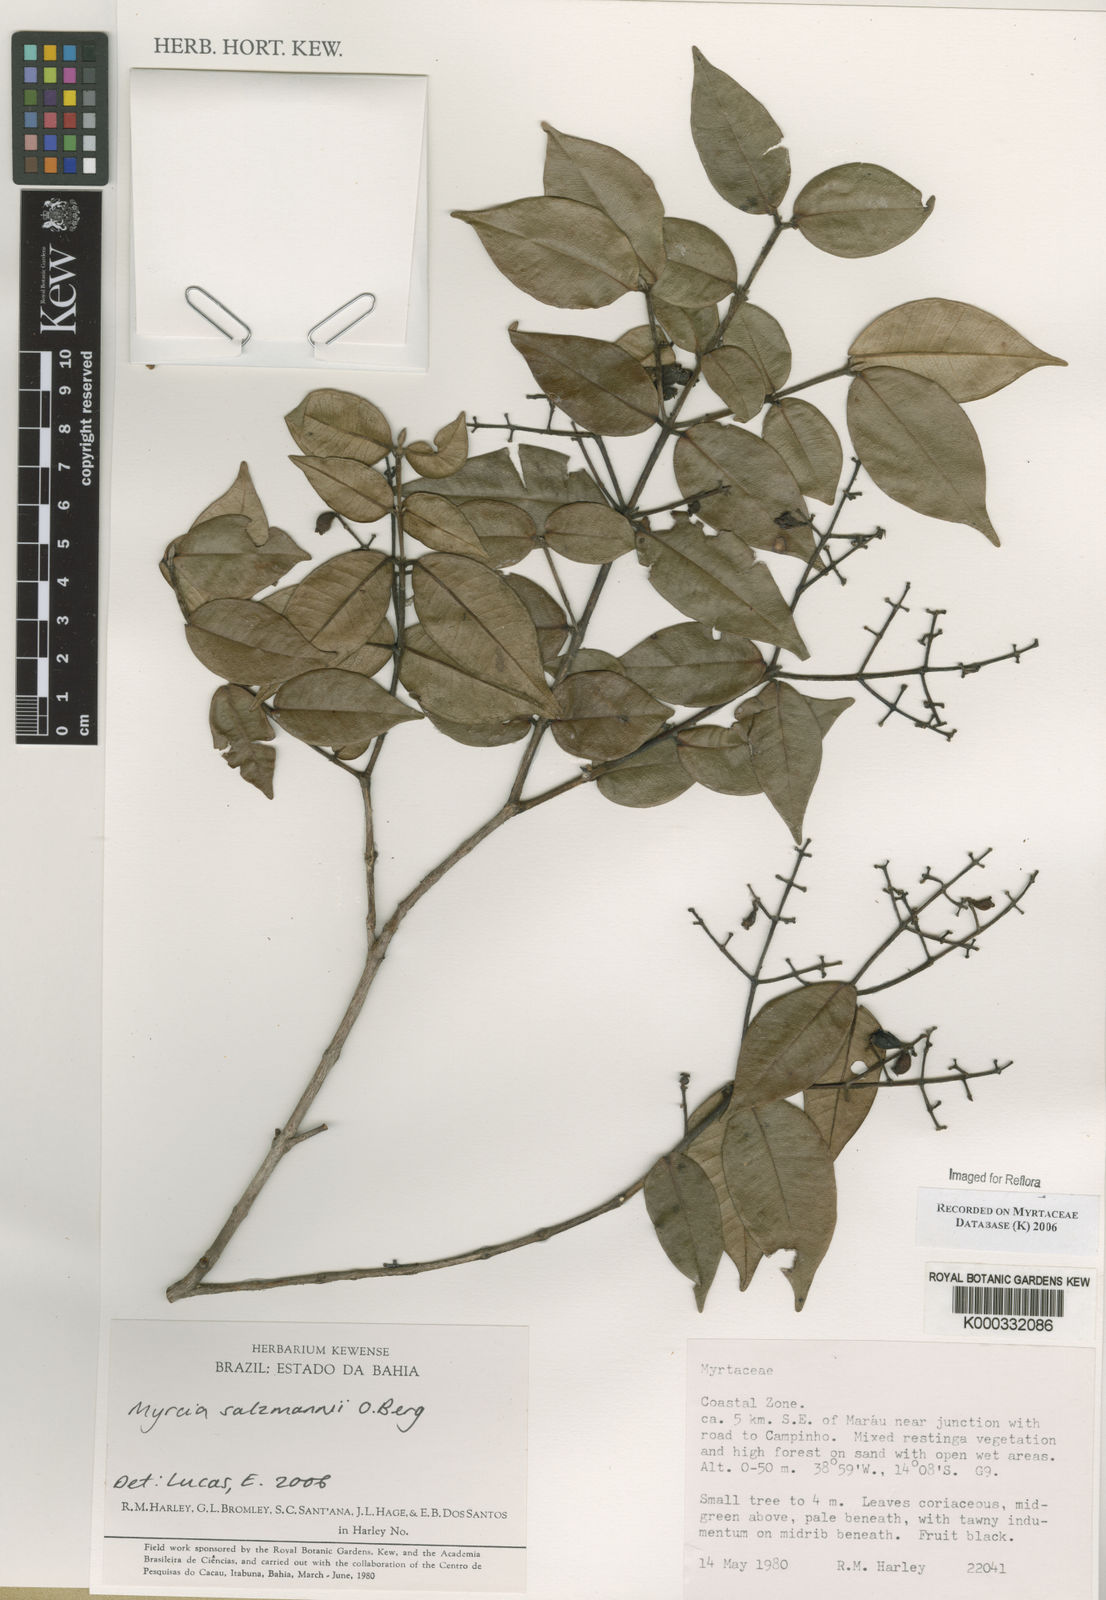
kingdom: Plantae
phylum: Tracheophyta
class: Magnoliopsida
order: Myrtales
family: Myrtaceae
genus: Myrcia
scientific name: Myrcia salzmannii
